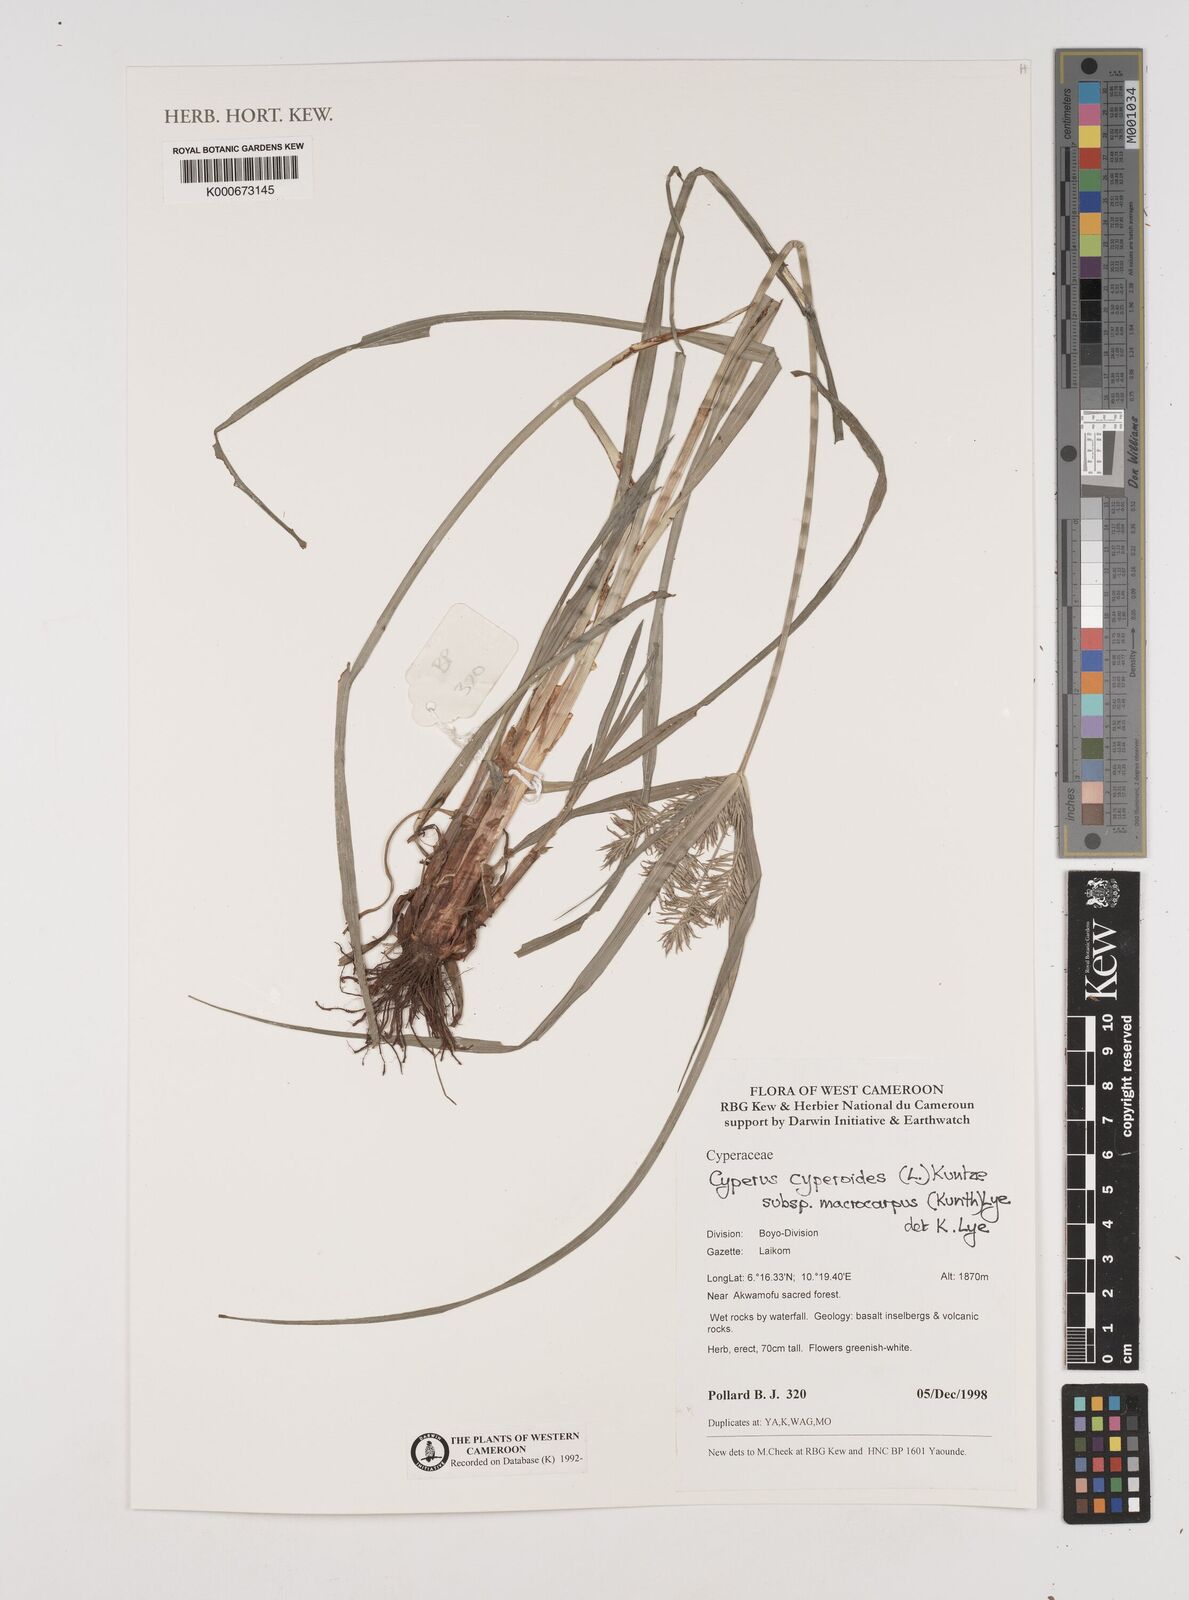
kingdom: Plantae
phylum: Tracheophyta
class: Liliopsida
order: Poales
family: Cyperaceae
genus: Cyperus
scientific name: Cyperus macrocarpus
